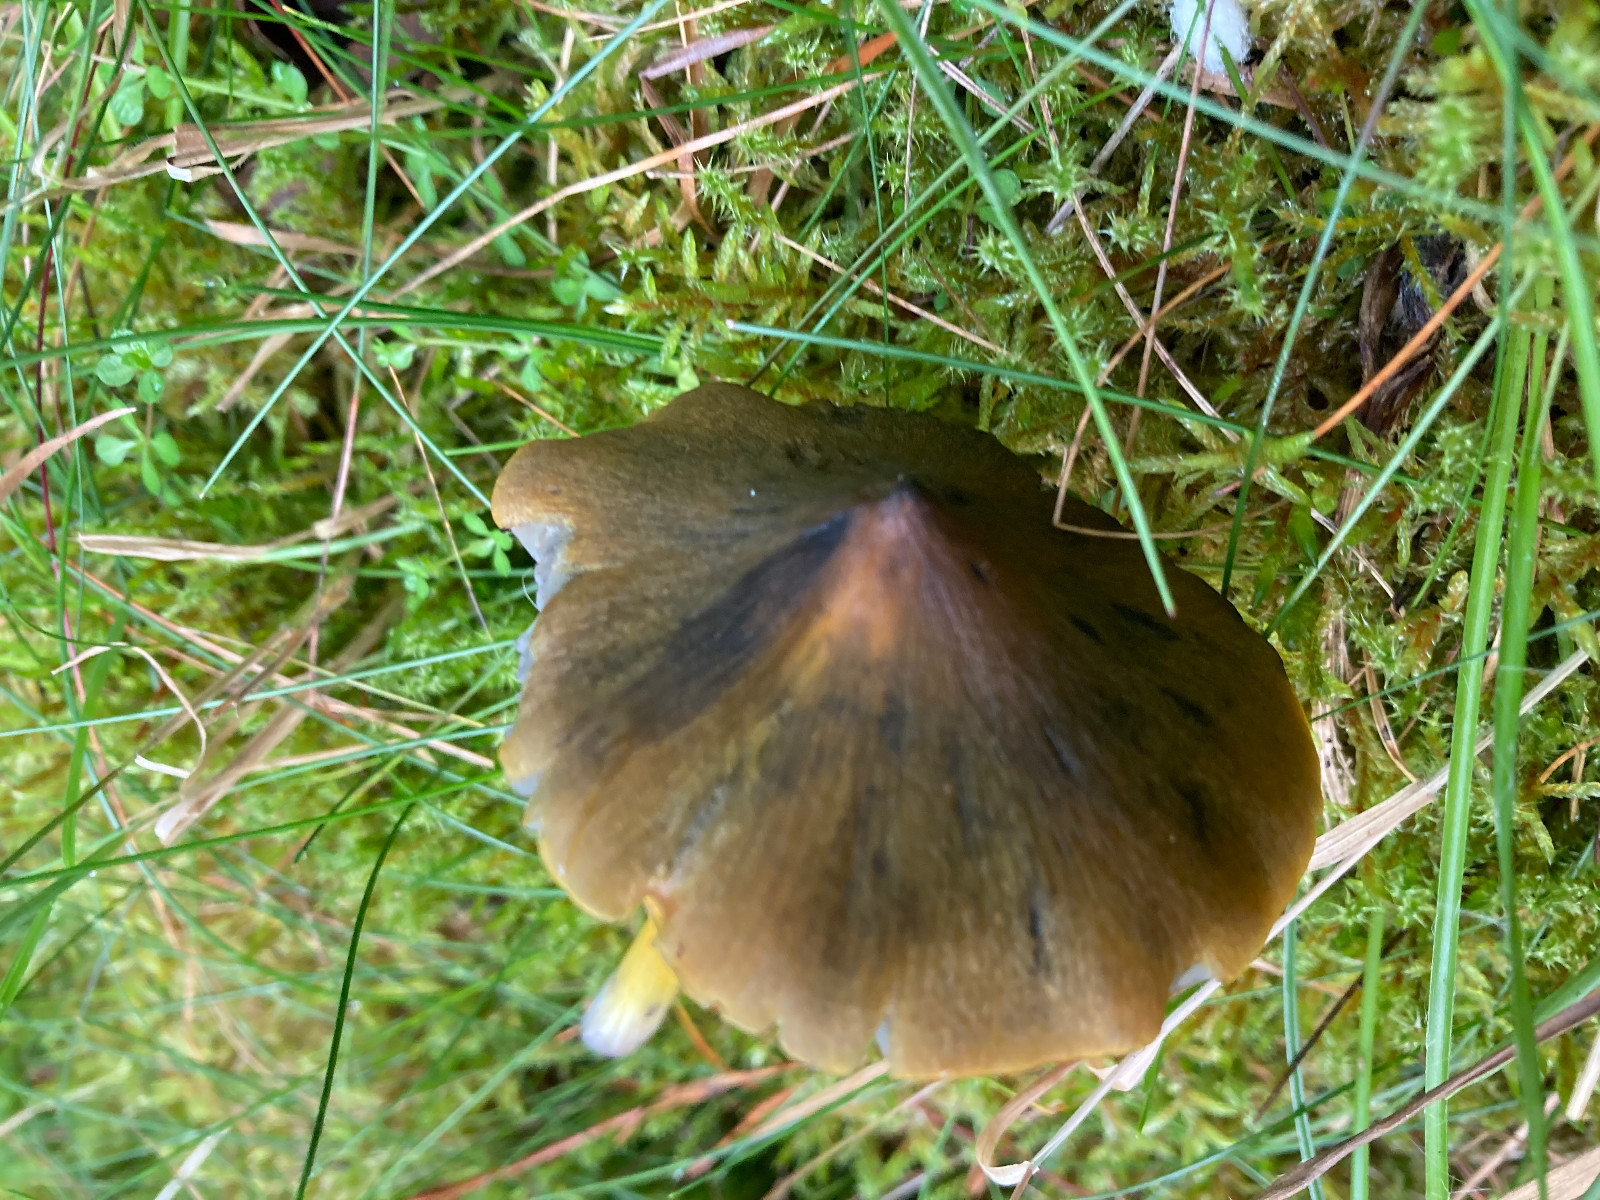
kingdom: Fungi
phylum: Basidiomycota
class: Agaricomycetes
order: Agaricales
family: Hygrophoraceae
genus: Hygrocybe
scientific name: Hygrocybe conica
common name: kegle-vokshat
